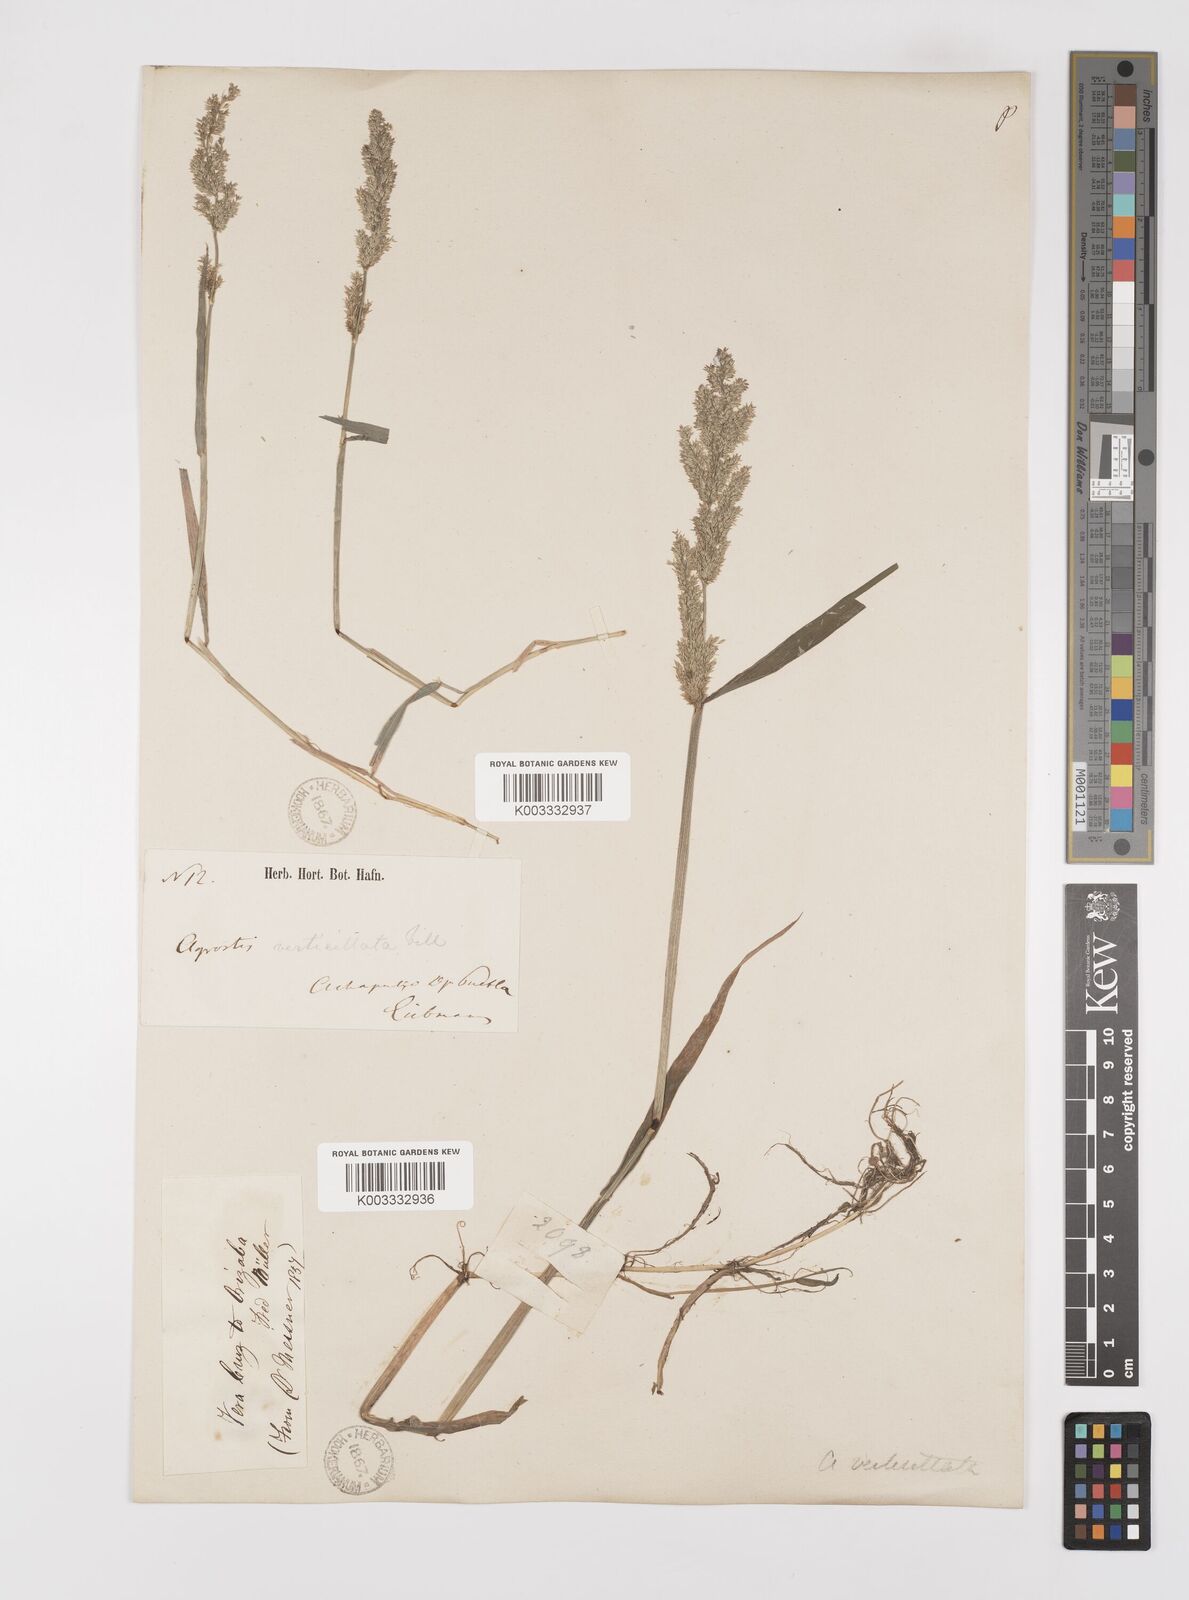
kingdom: Plantae
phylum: Tracheophyta
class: Liliopsida
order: Poales
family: Poaceae
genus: Polypogon
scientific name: Polypogon viridis
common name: Water bent
